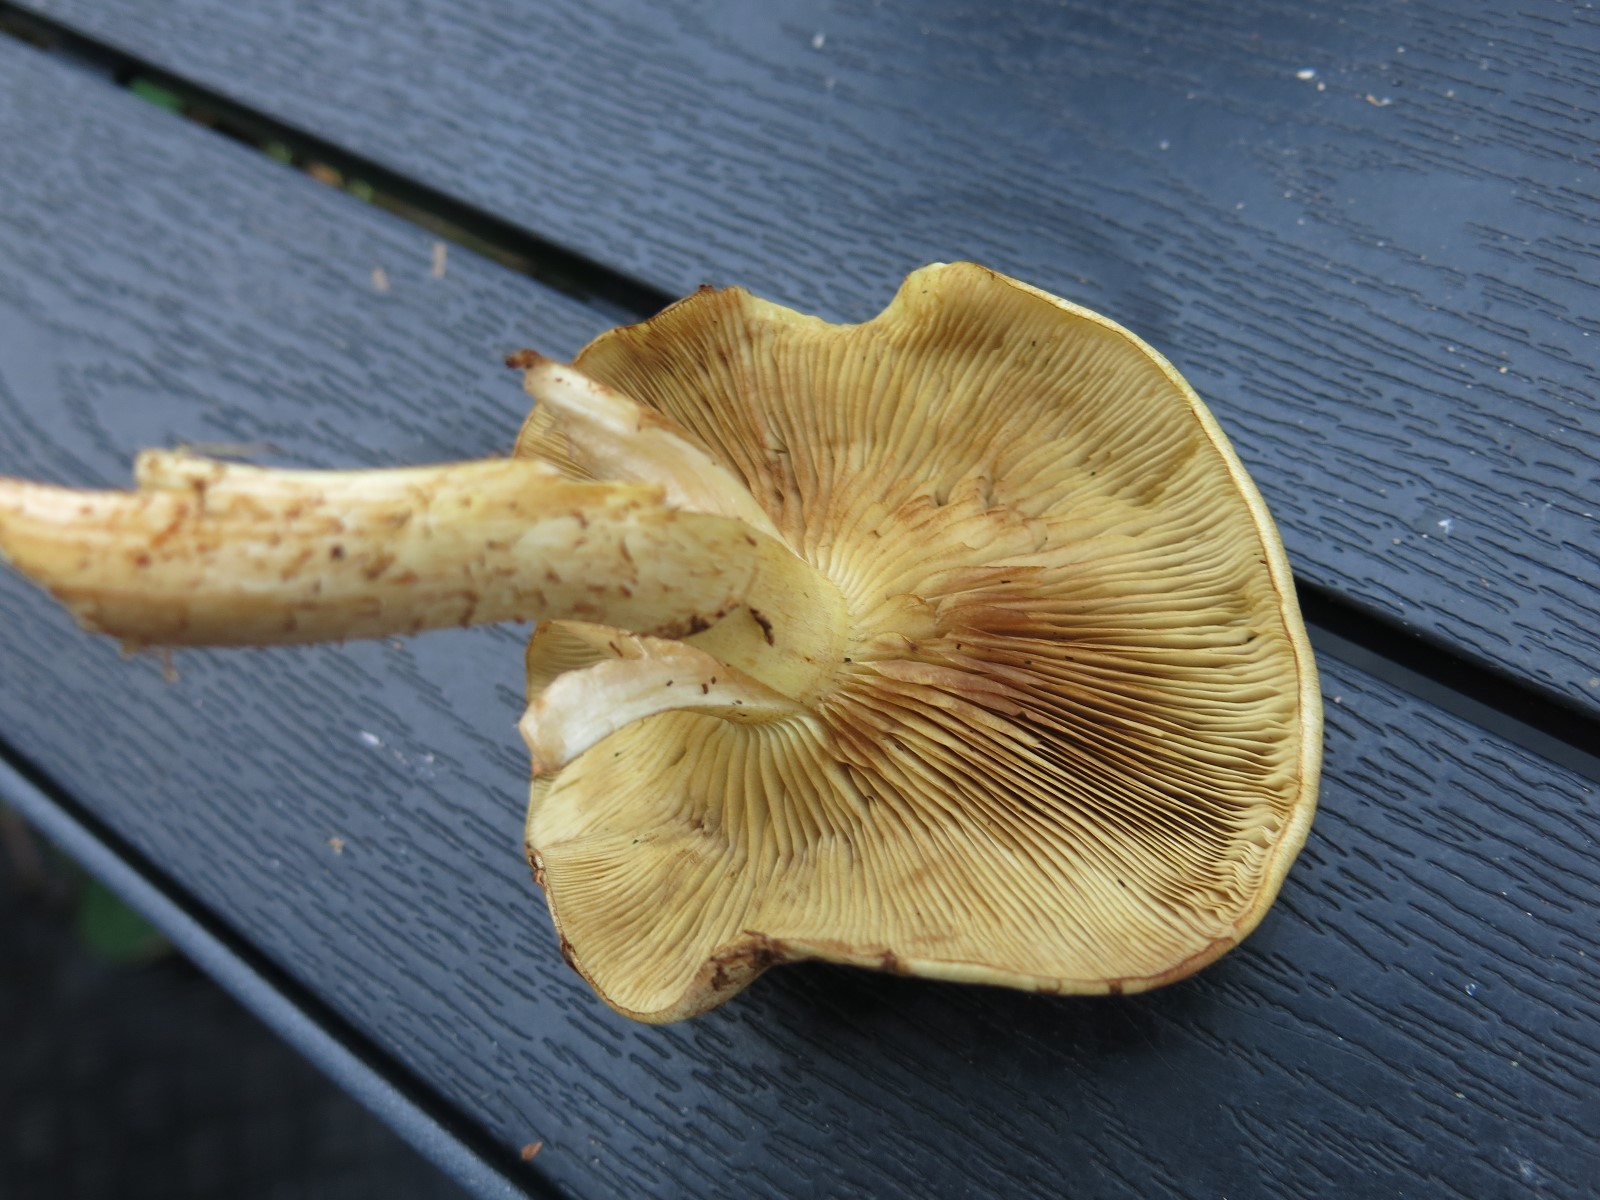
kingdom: Fungi
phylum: Basidiomycota
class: Agaricomycetes
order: Agaricales
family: Strophariaceae
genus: Pholiota
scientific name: Pholiota gummosa
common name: grøngul skælhat
